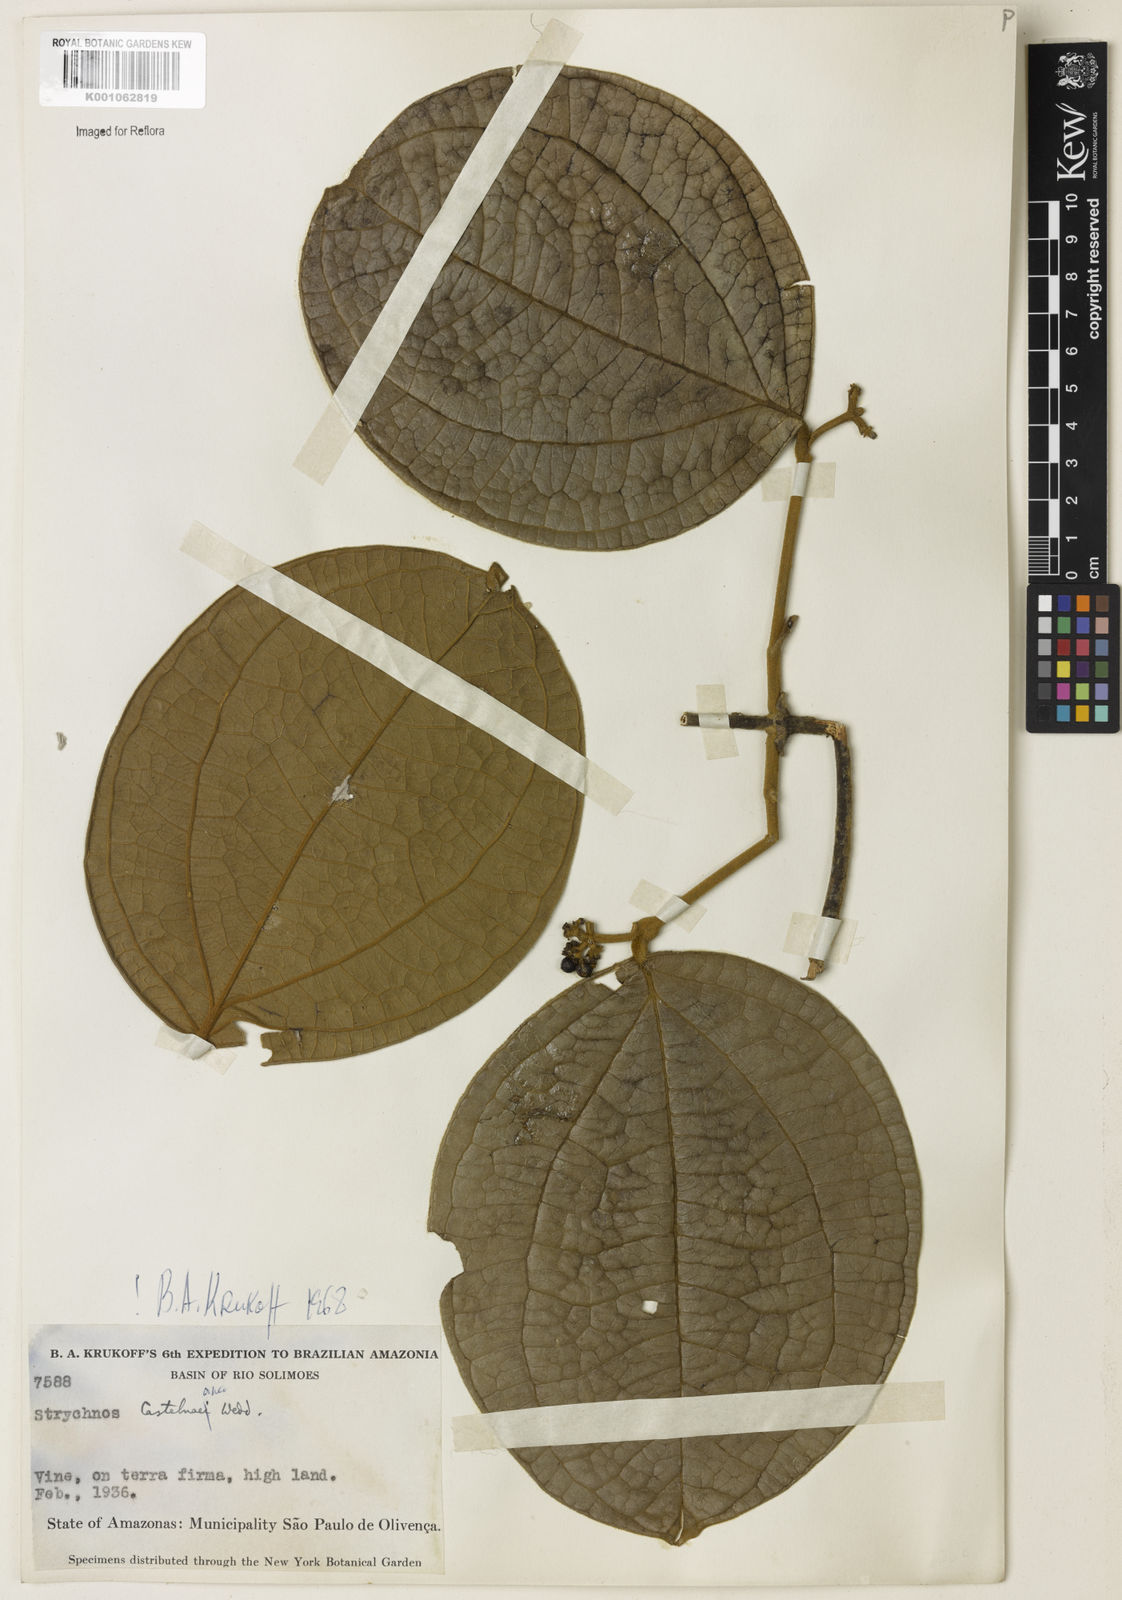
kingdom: Plantae
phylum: Tracheophyta
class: Magnoliopsida
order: Gentianales
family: Loganiaceae
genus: Strychnos
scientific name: Strychnos
